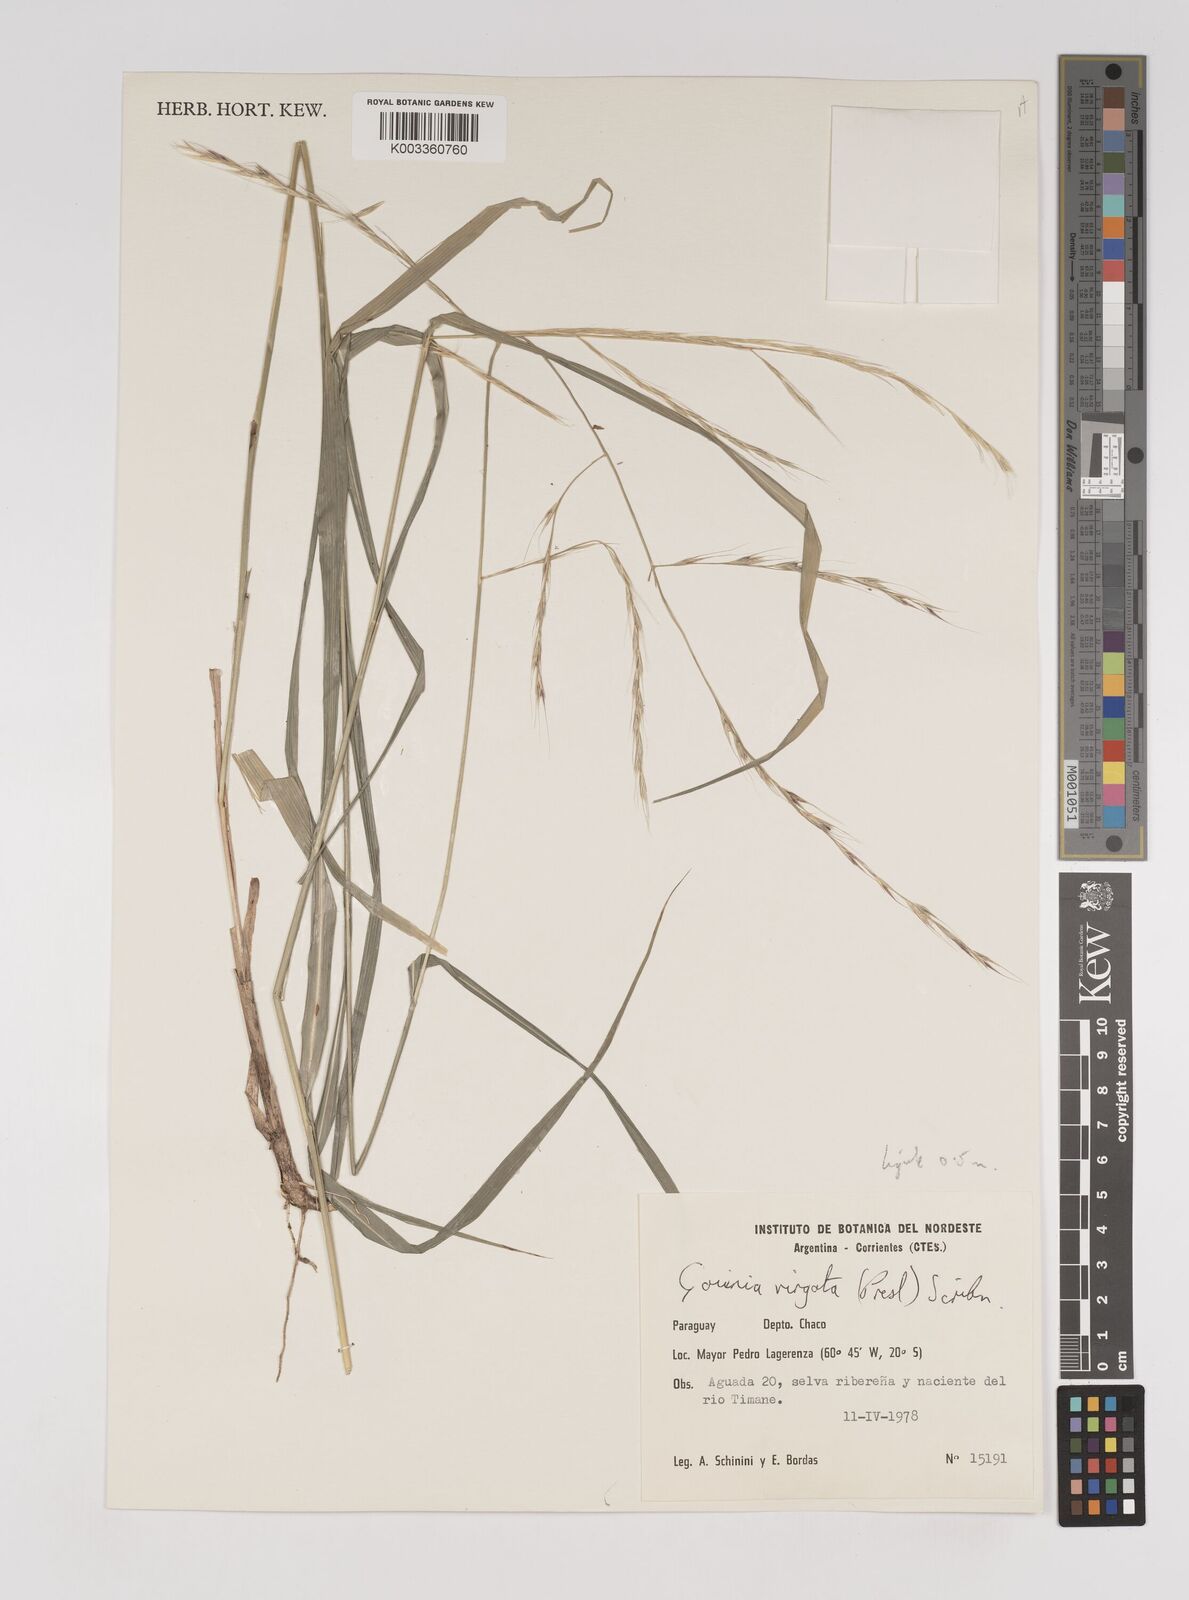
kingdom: Plantae
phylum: Tracheophyta
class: Liliopsida
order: Poales
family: Poaceae
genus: Gouinia
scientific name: Gouinia brasiliensis
